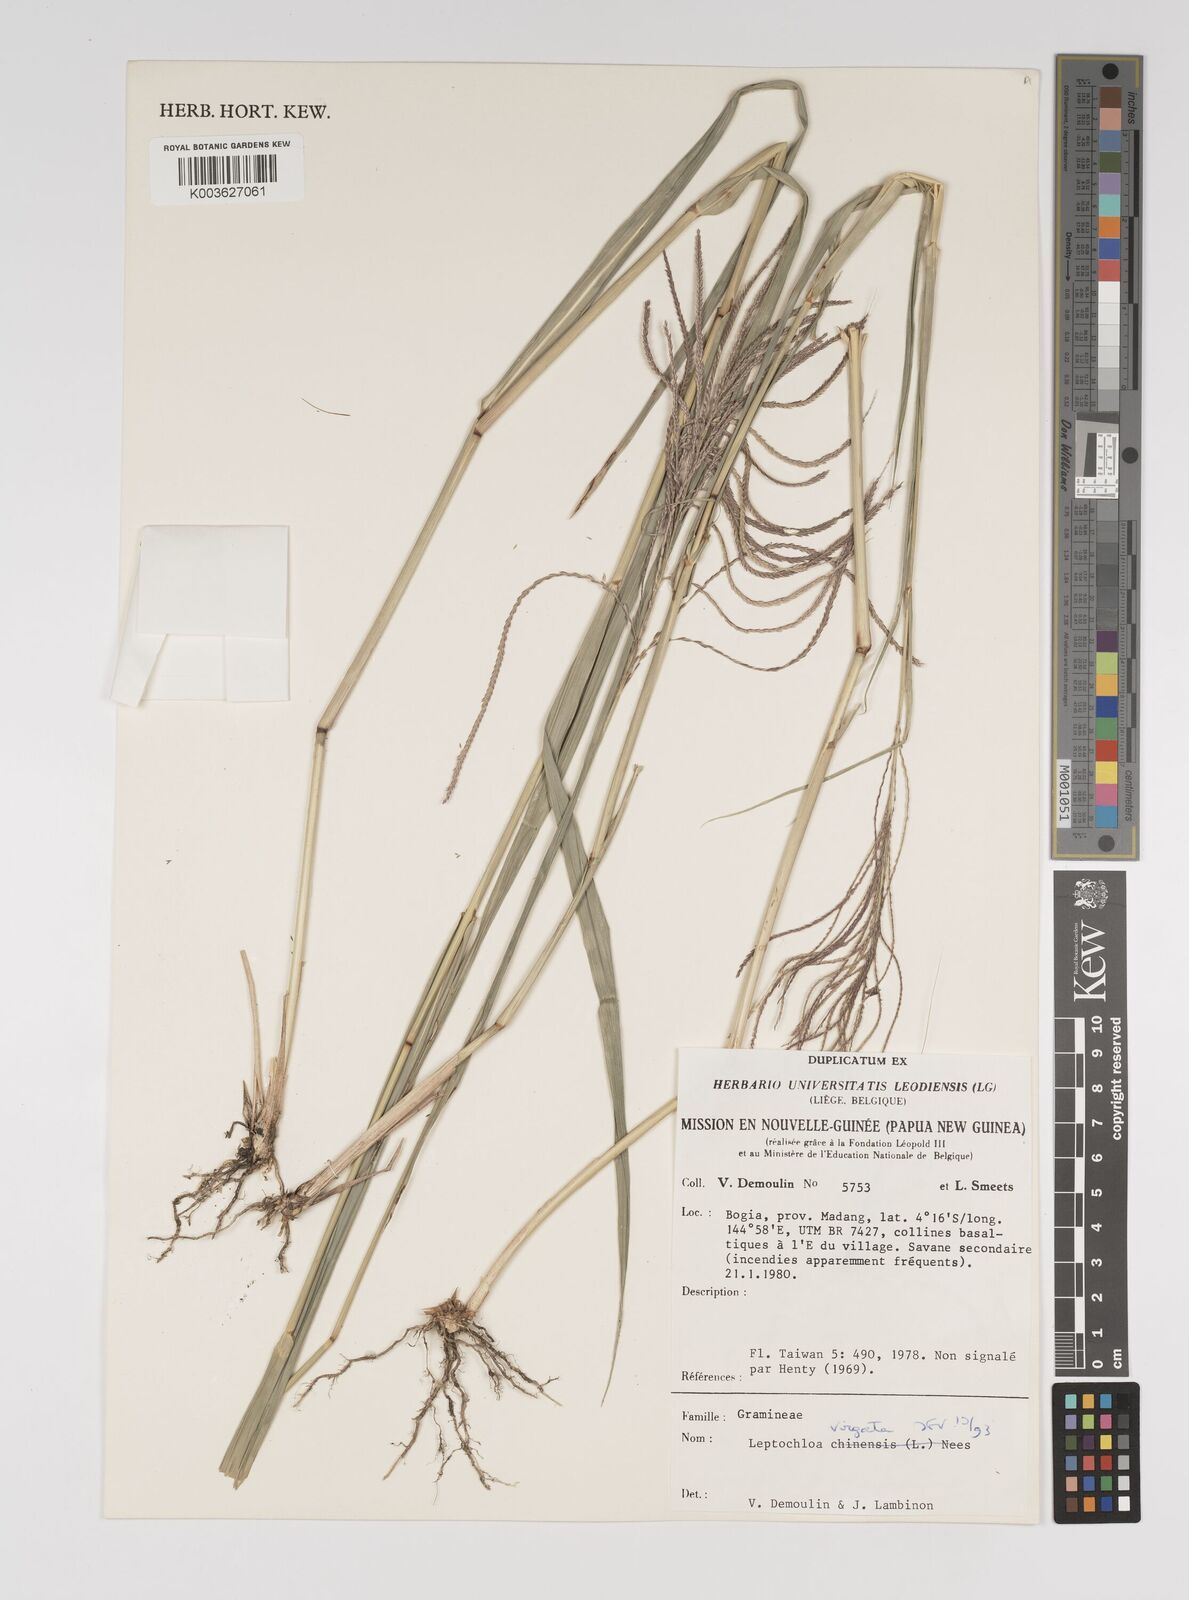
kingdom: Plantae
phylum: Tracheophyta
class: Liliopsida
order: Poales
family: Poaceae
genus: Leptochloa
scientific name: Leptochloa
